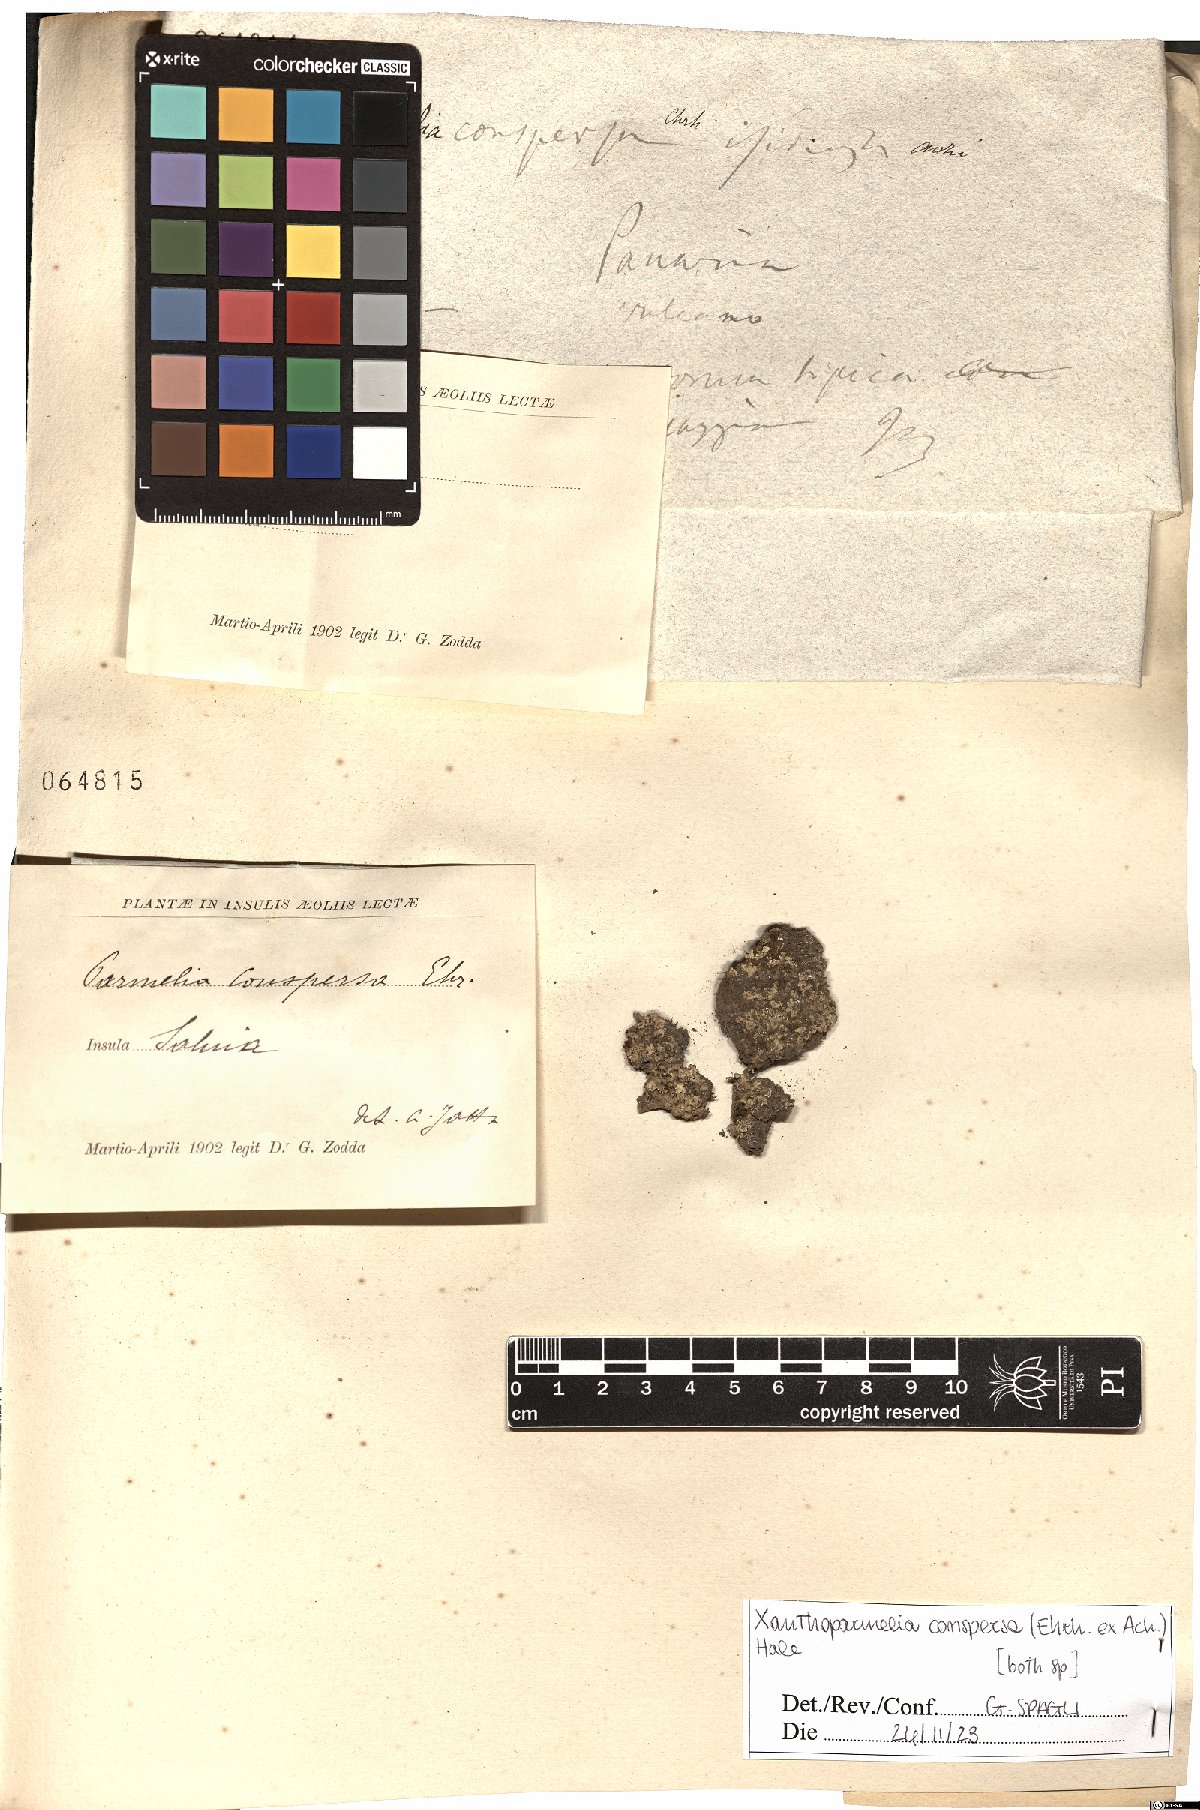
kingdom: Fungi
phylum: Ascomycota
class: Lecanoromycetes
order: Lecanorales
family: Parmeliaceae
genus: Xanthoparmelia
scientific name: Xanthoparmelia conspersa
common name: Peppered rock shield
